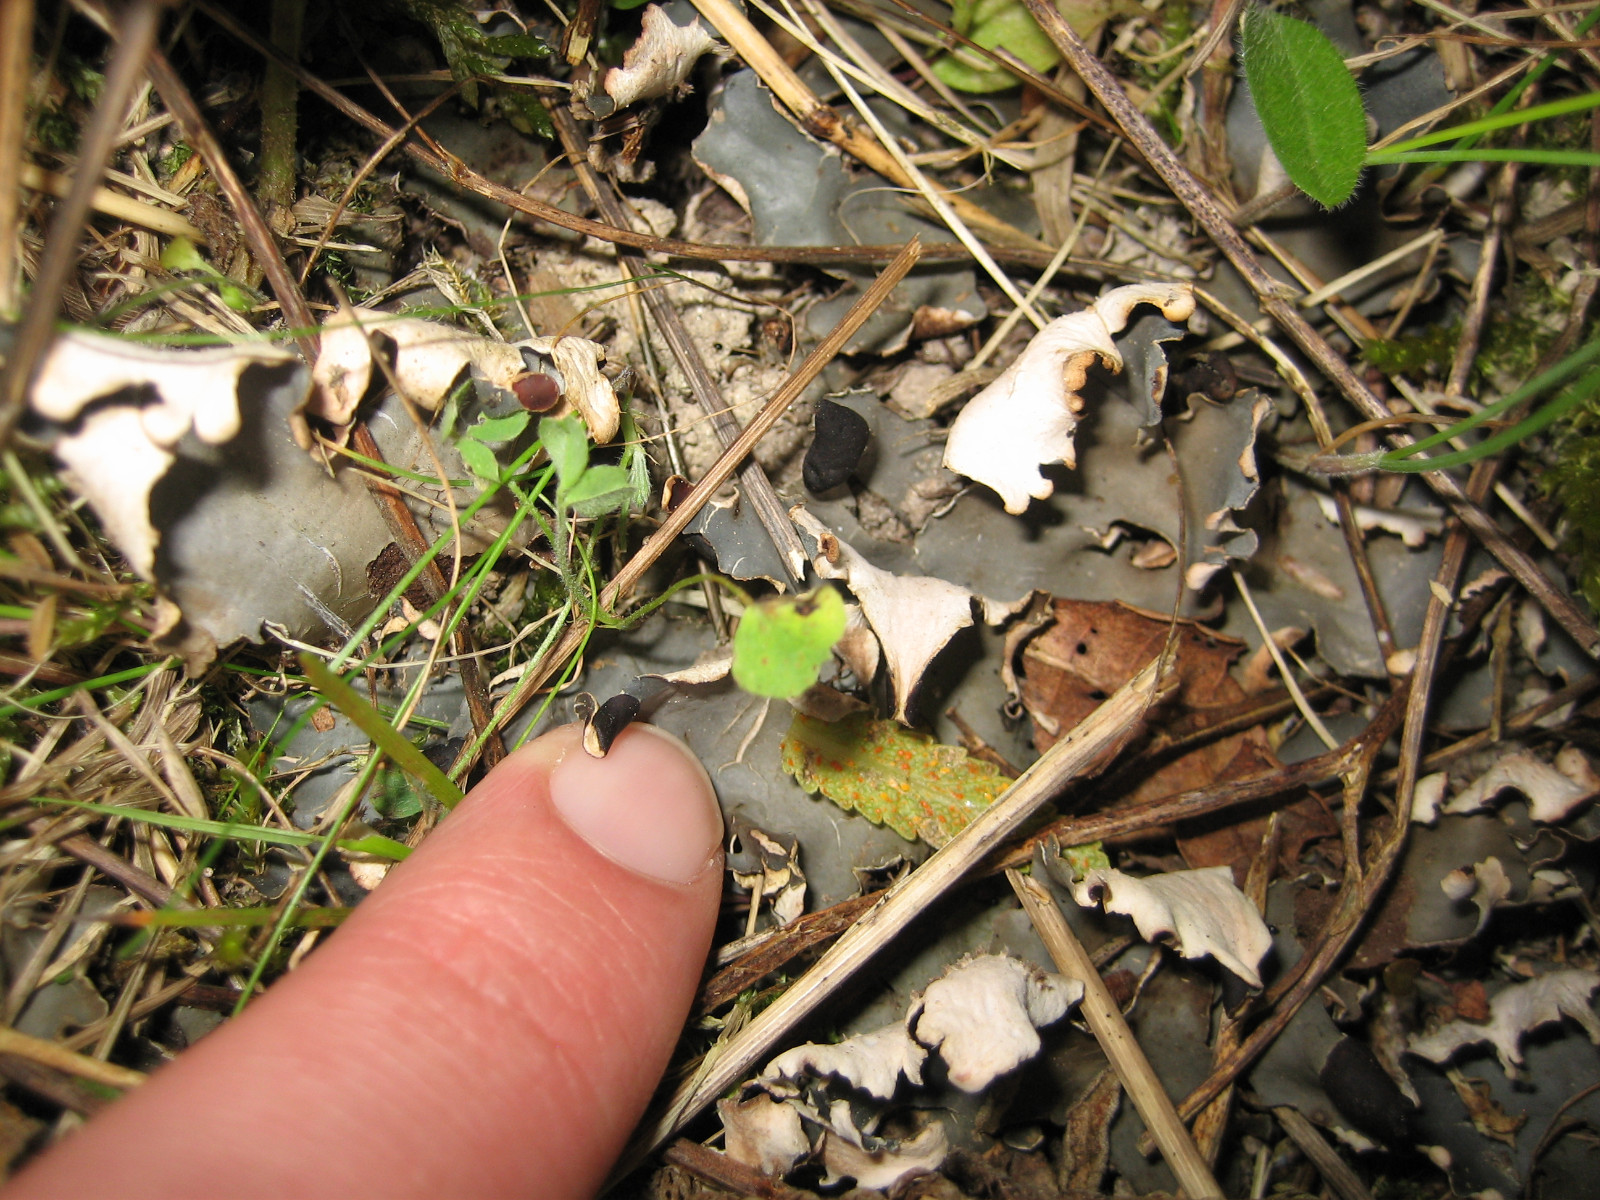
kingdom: Fungi
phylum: Ascomycota
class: Lecanoromycetes
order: Peltigerales
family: Peltigeraceae
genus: Peltigera
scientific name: Peltigera neckeri
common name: glinsende skjoldlav
